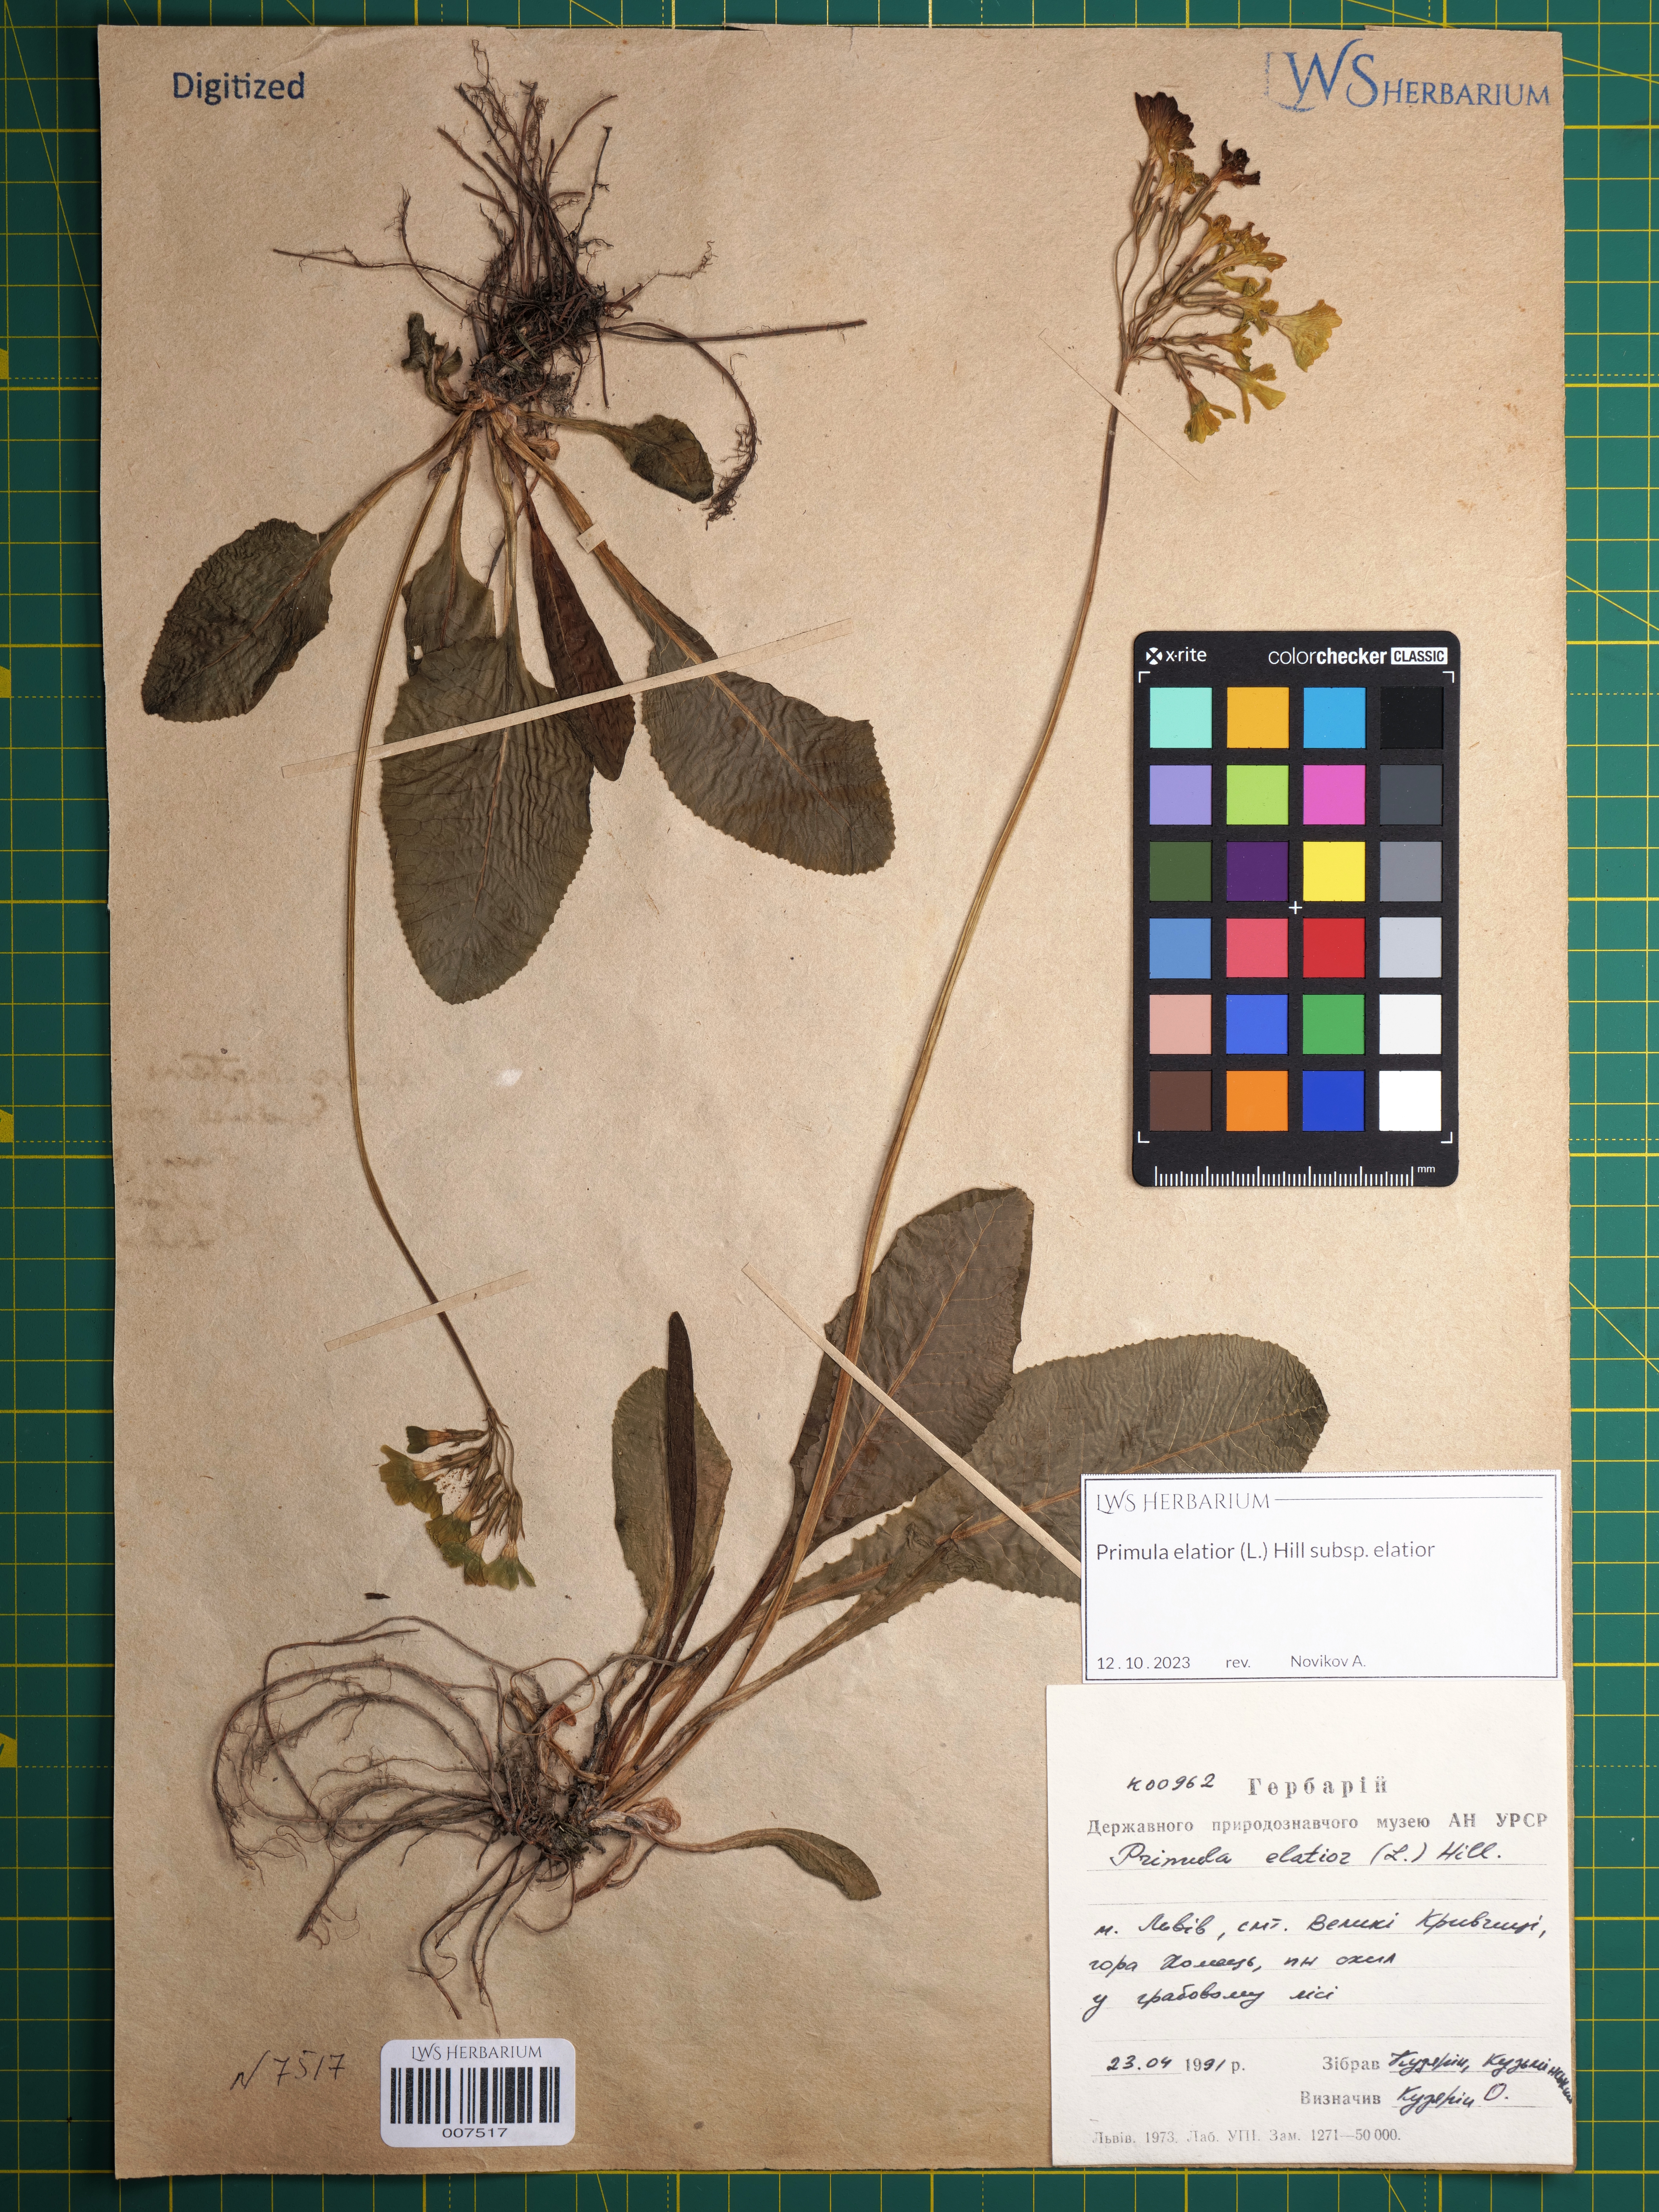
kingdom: Plantae
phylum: Tracheophyta
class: Magnoliopsida
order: Ericales
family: Primulaceae
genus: Primula
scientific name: Primula elatior
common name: Oxlip
